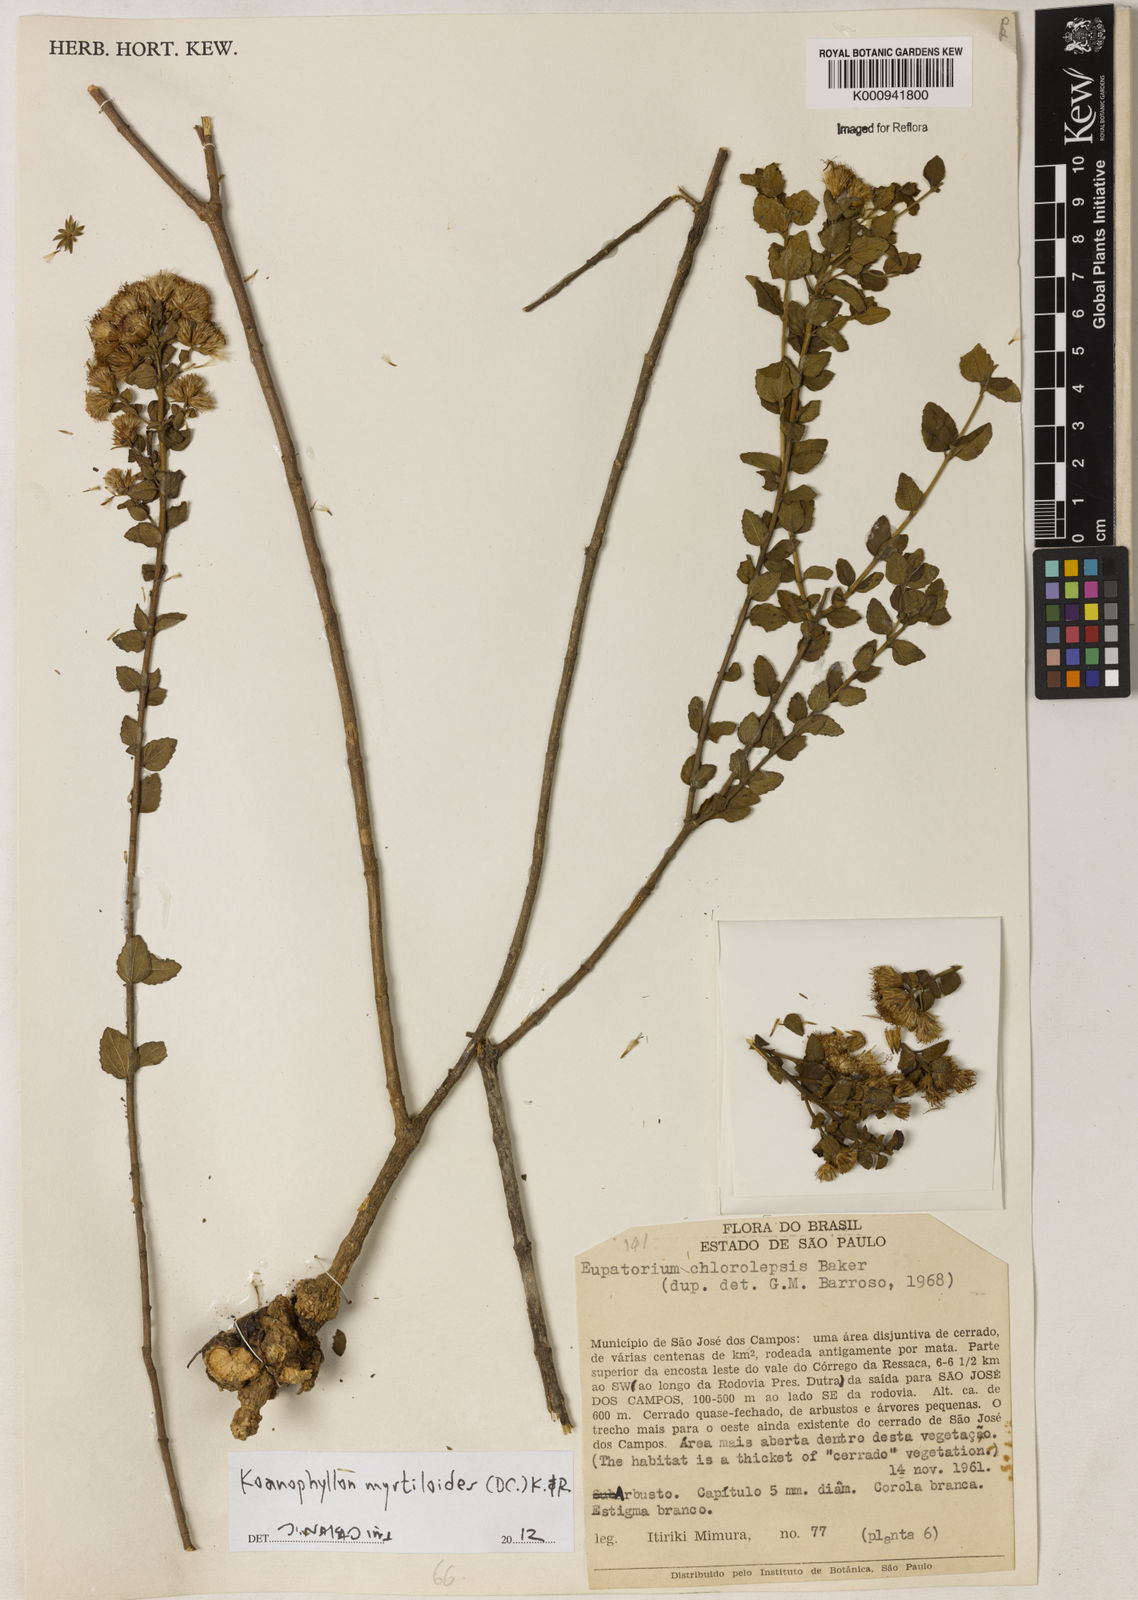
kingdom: Plantae
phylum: Tracheophyta
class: Magnoliopsida
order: Asterales
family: Asteraceae
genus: Koanophyllon
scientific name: Koanophyllon myrtilloides
